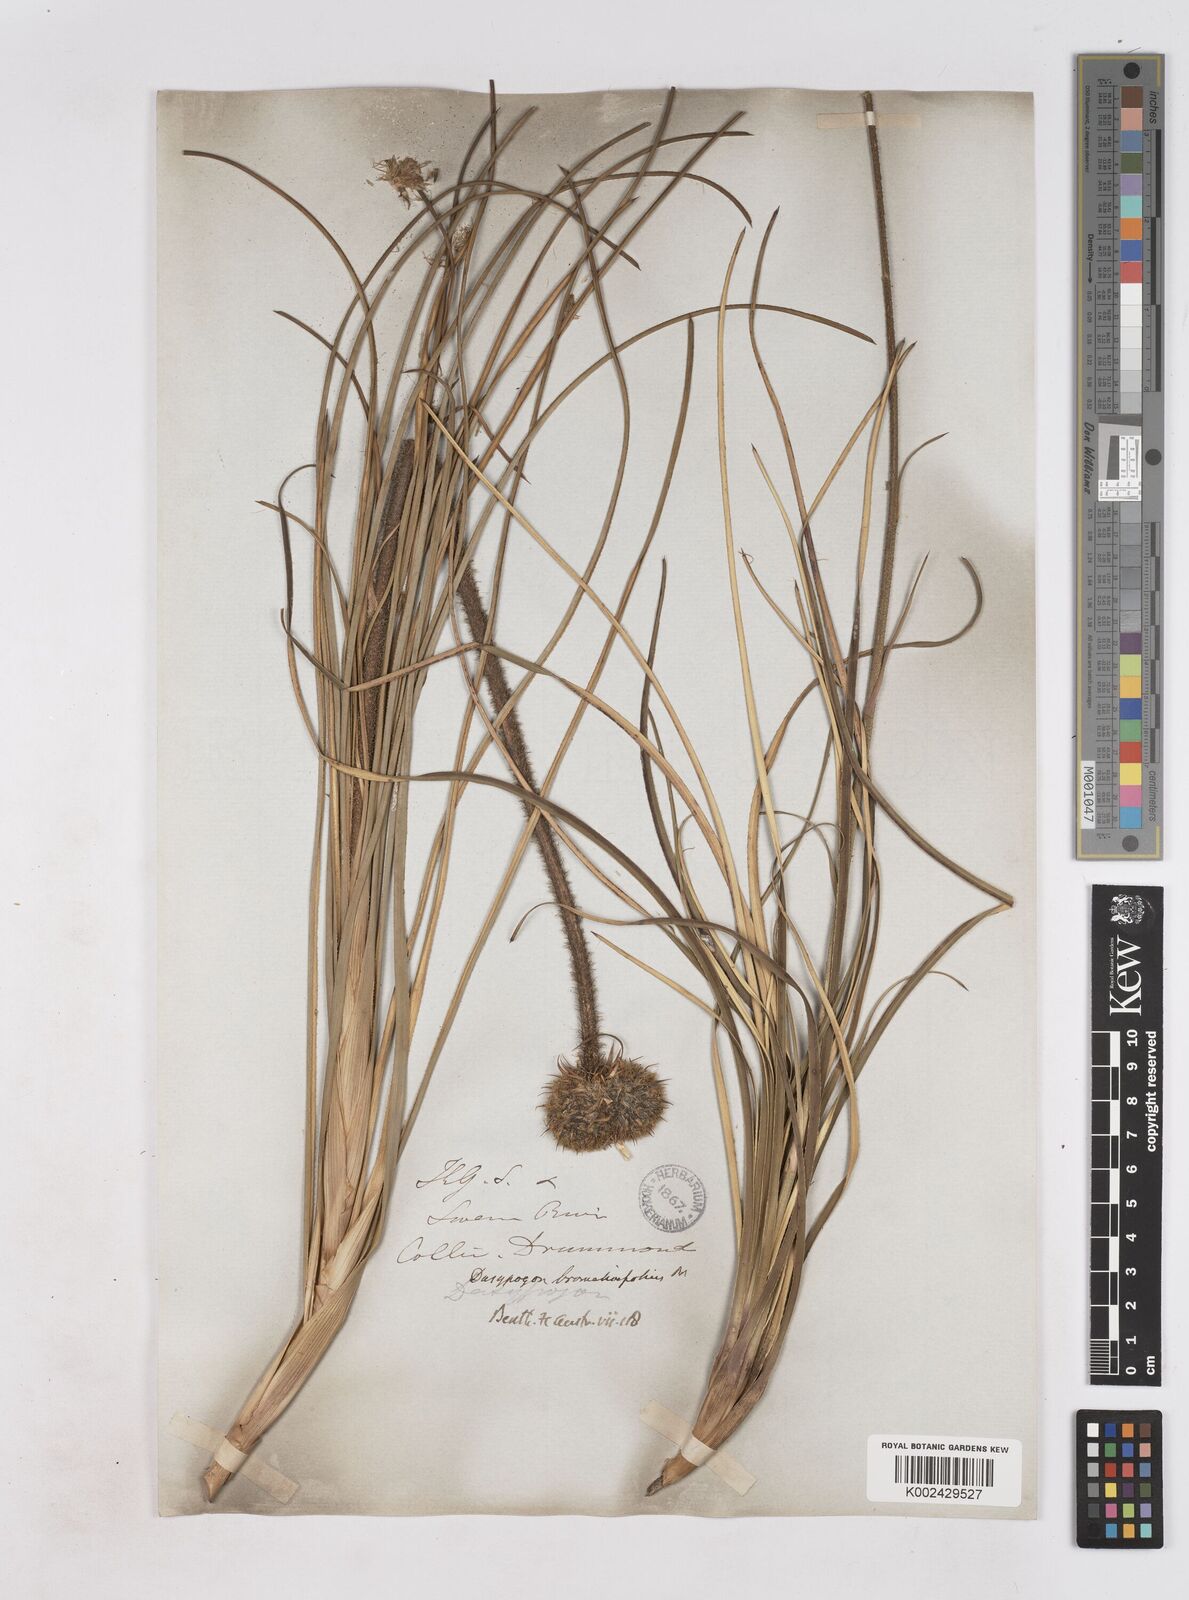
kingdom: Plantae
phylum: Tracheophyta
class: Liliopsida
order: Arecales
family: Dasypogonaceae
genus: Dasypogon
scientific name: Dasypogon bromeliifolius
